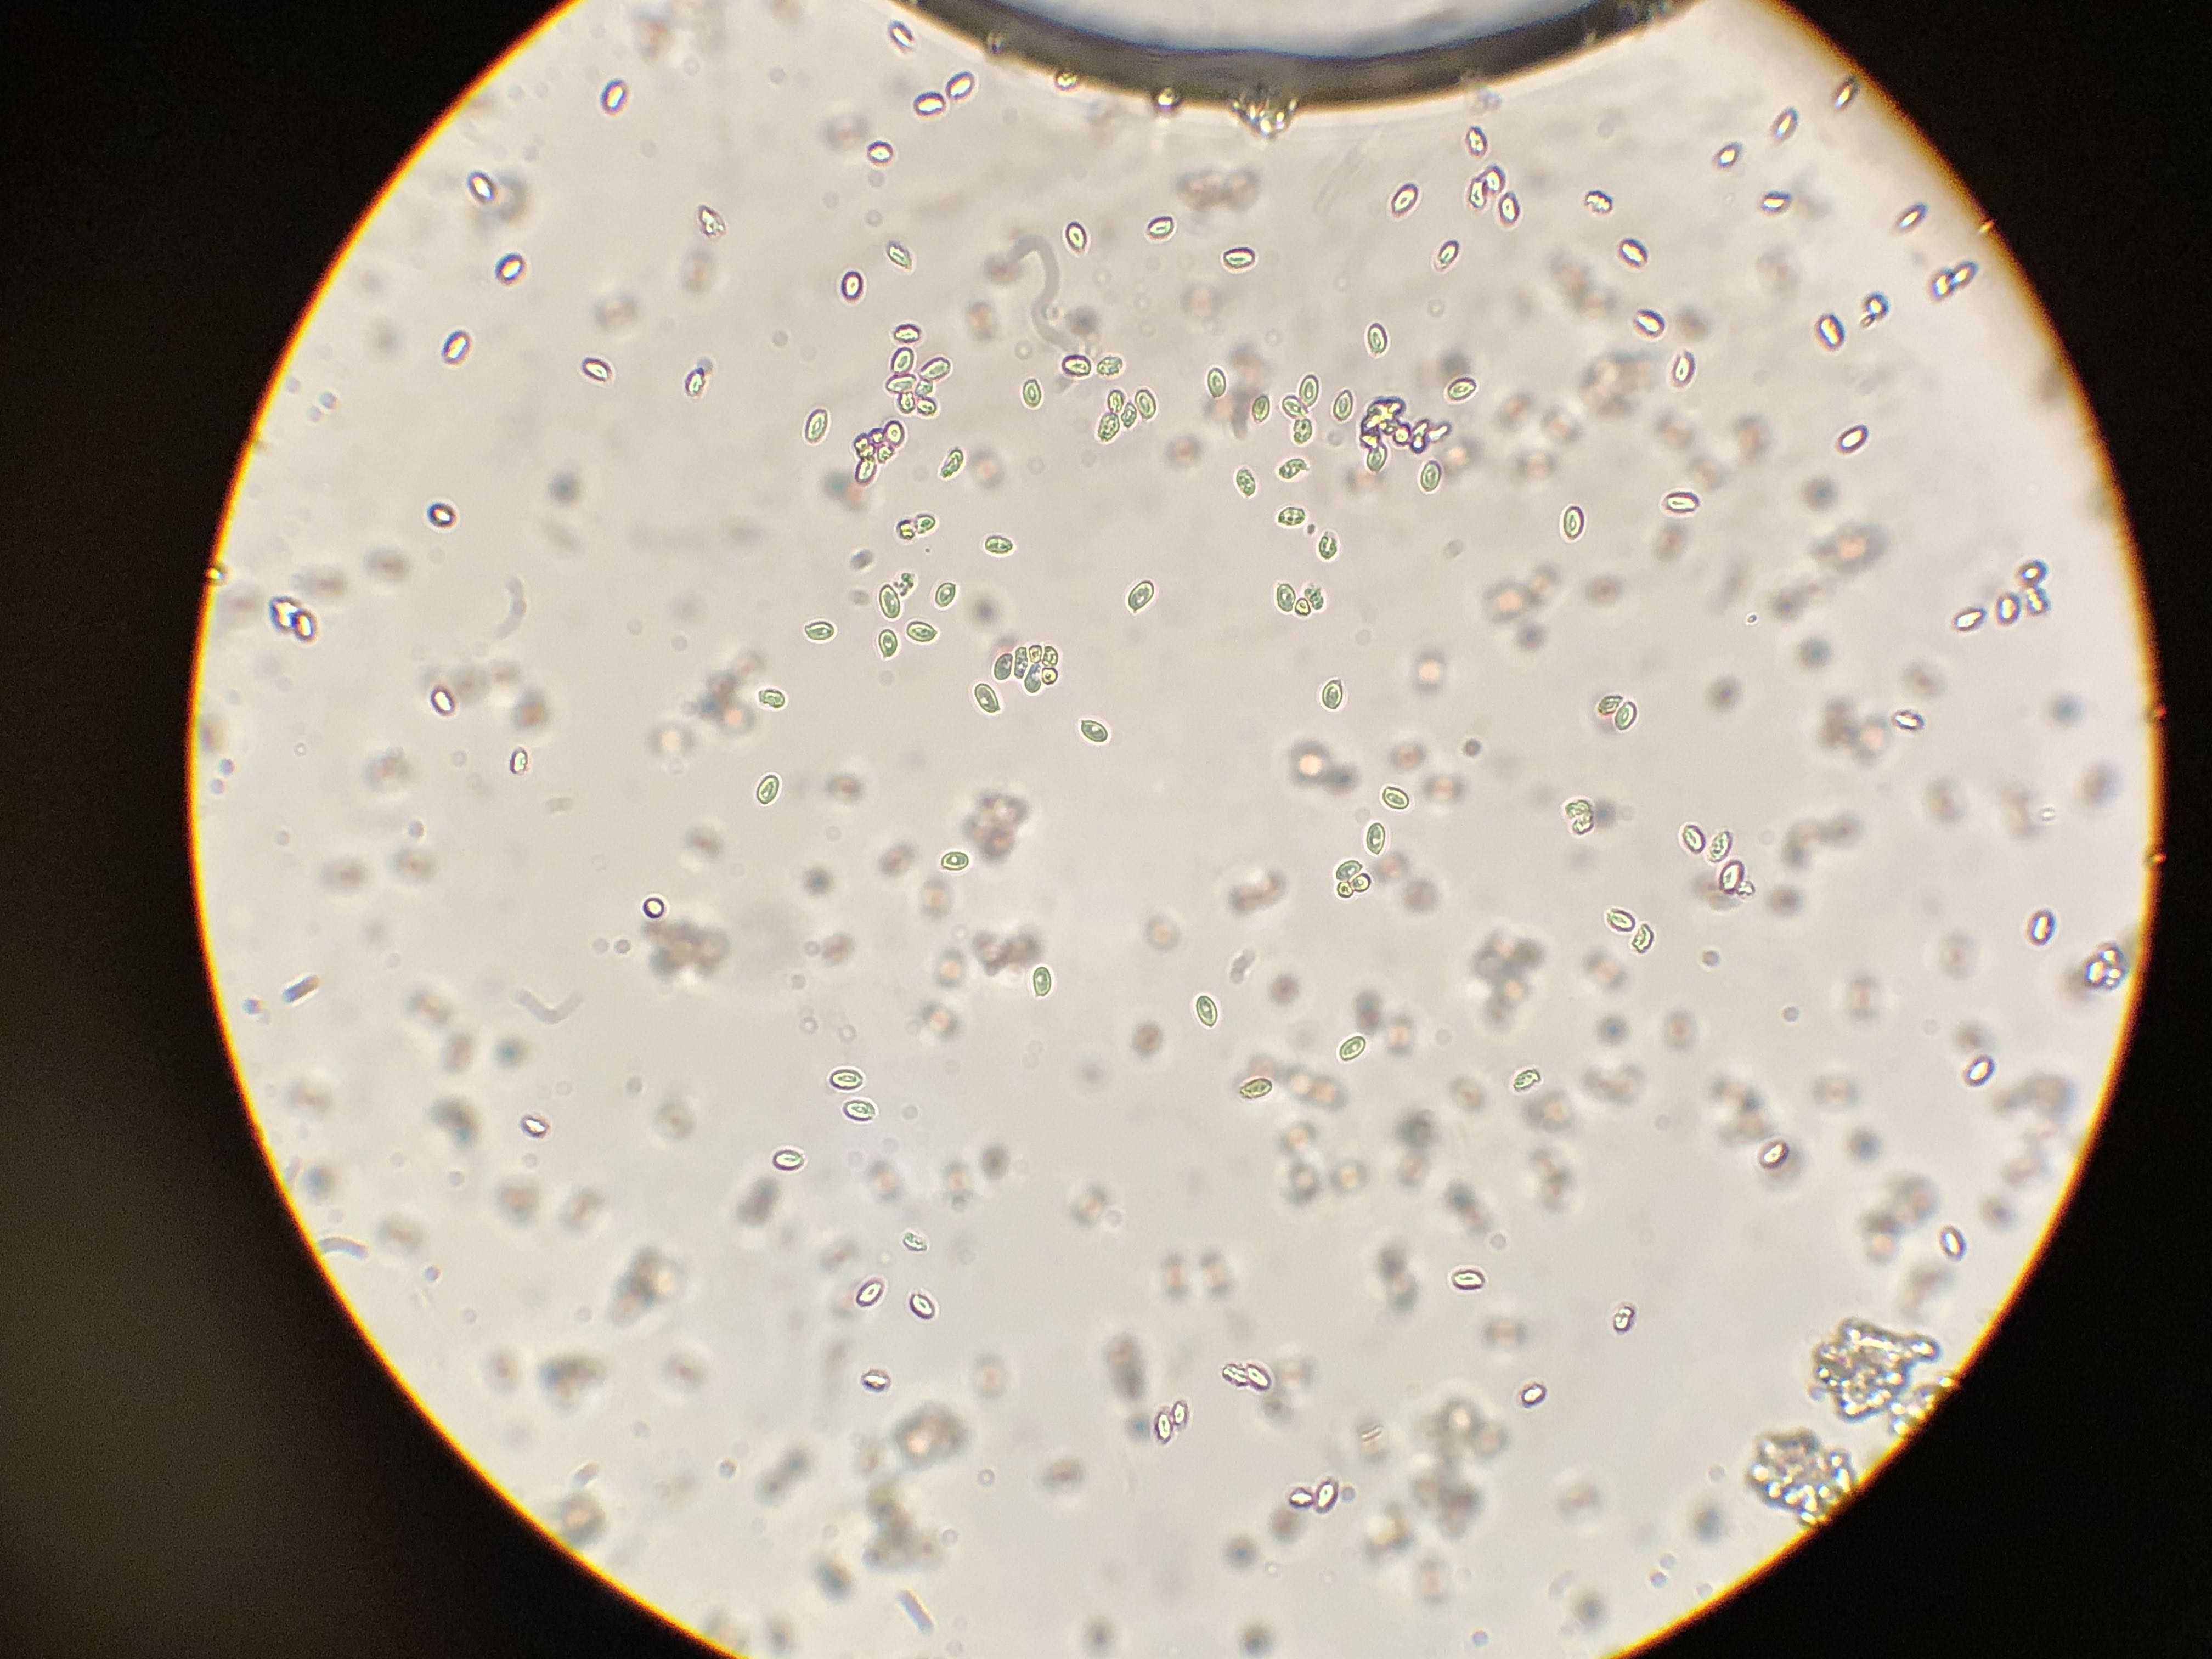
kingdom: Fungi
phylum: Basidiomycota
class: Agaricomycetes
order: Agaricales
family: Tricholomataceae
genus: Lepista
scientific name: Lepista
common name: hekseringshat
